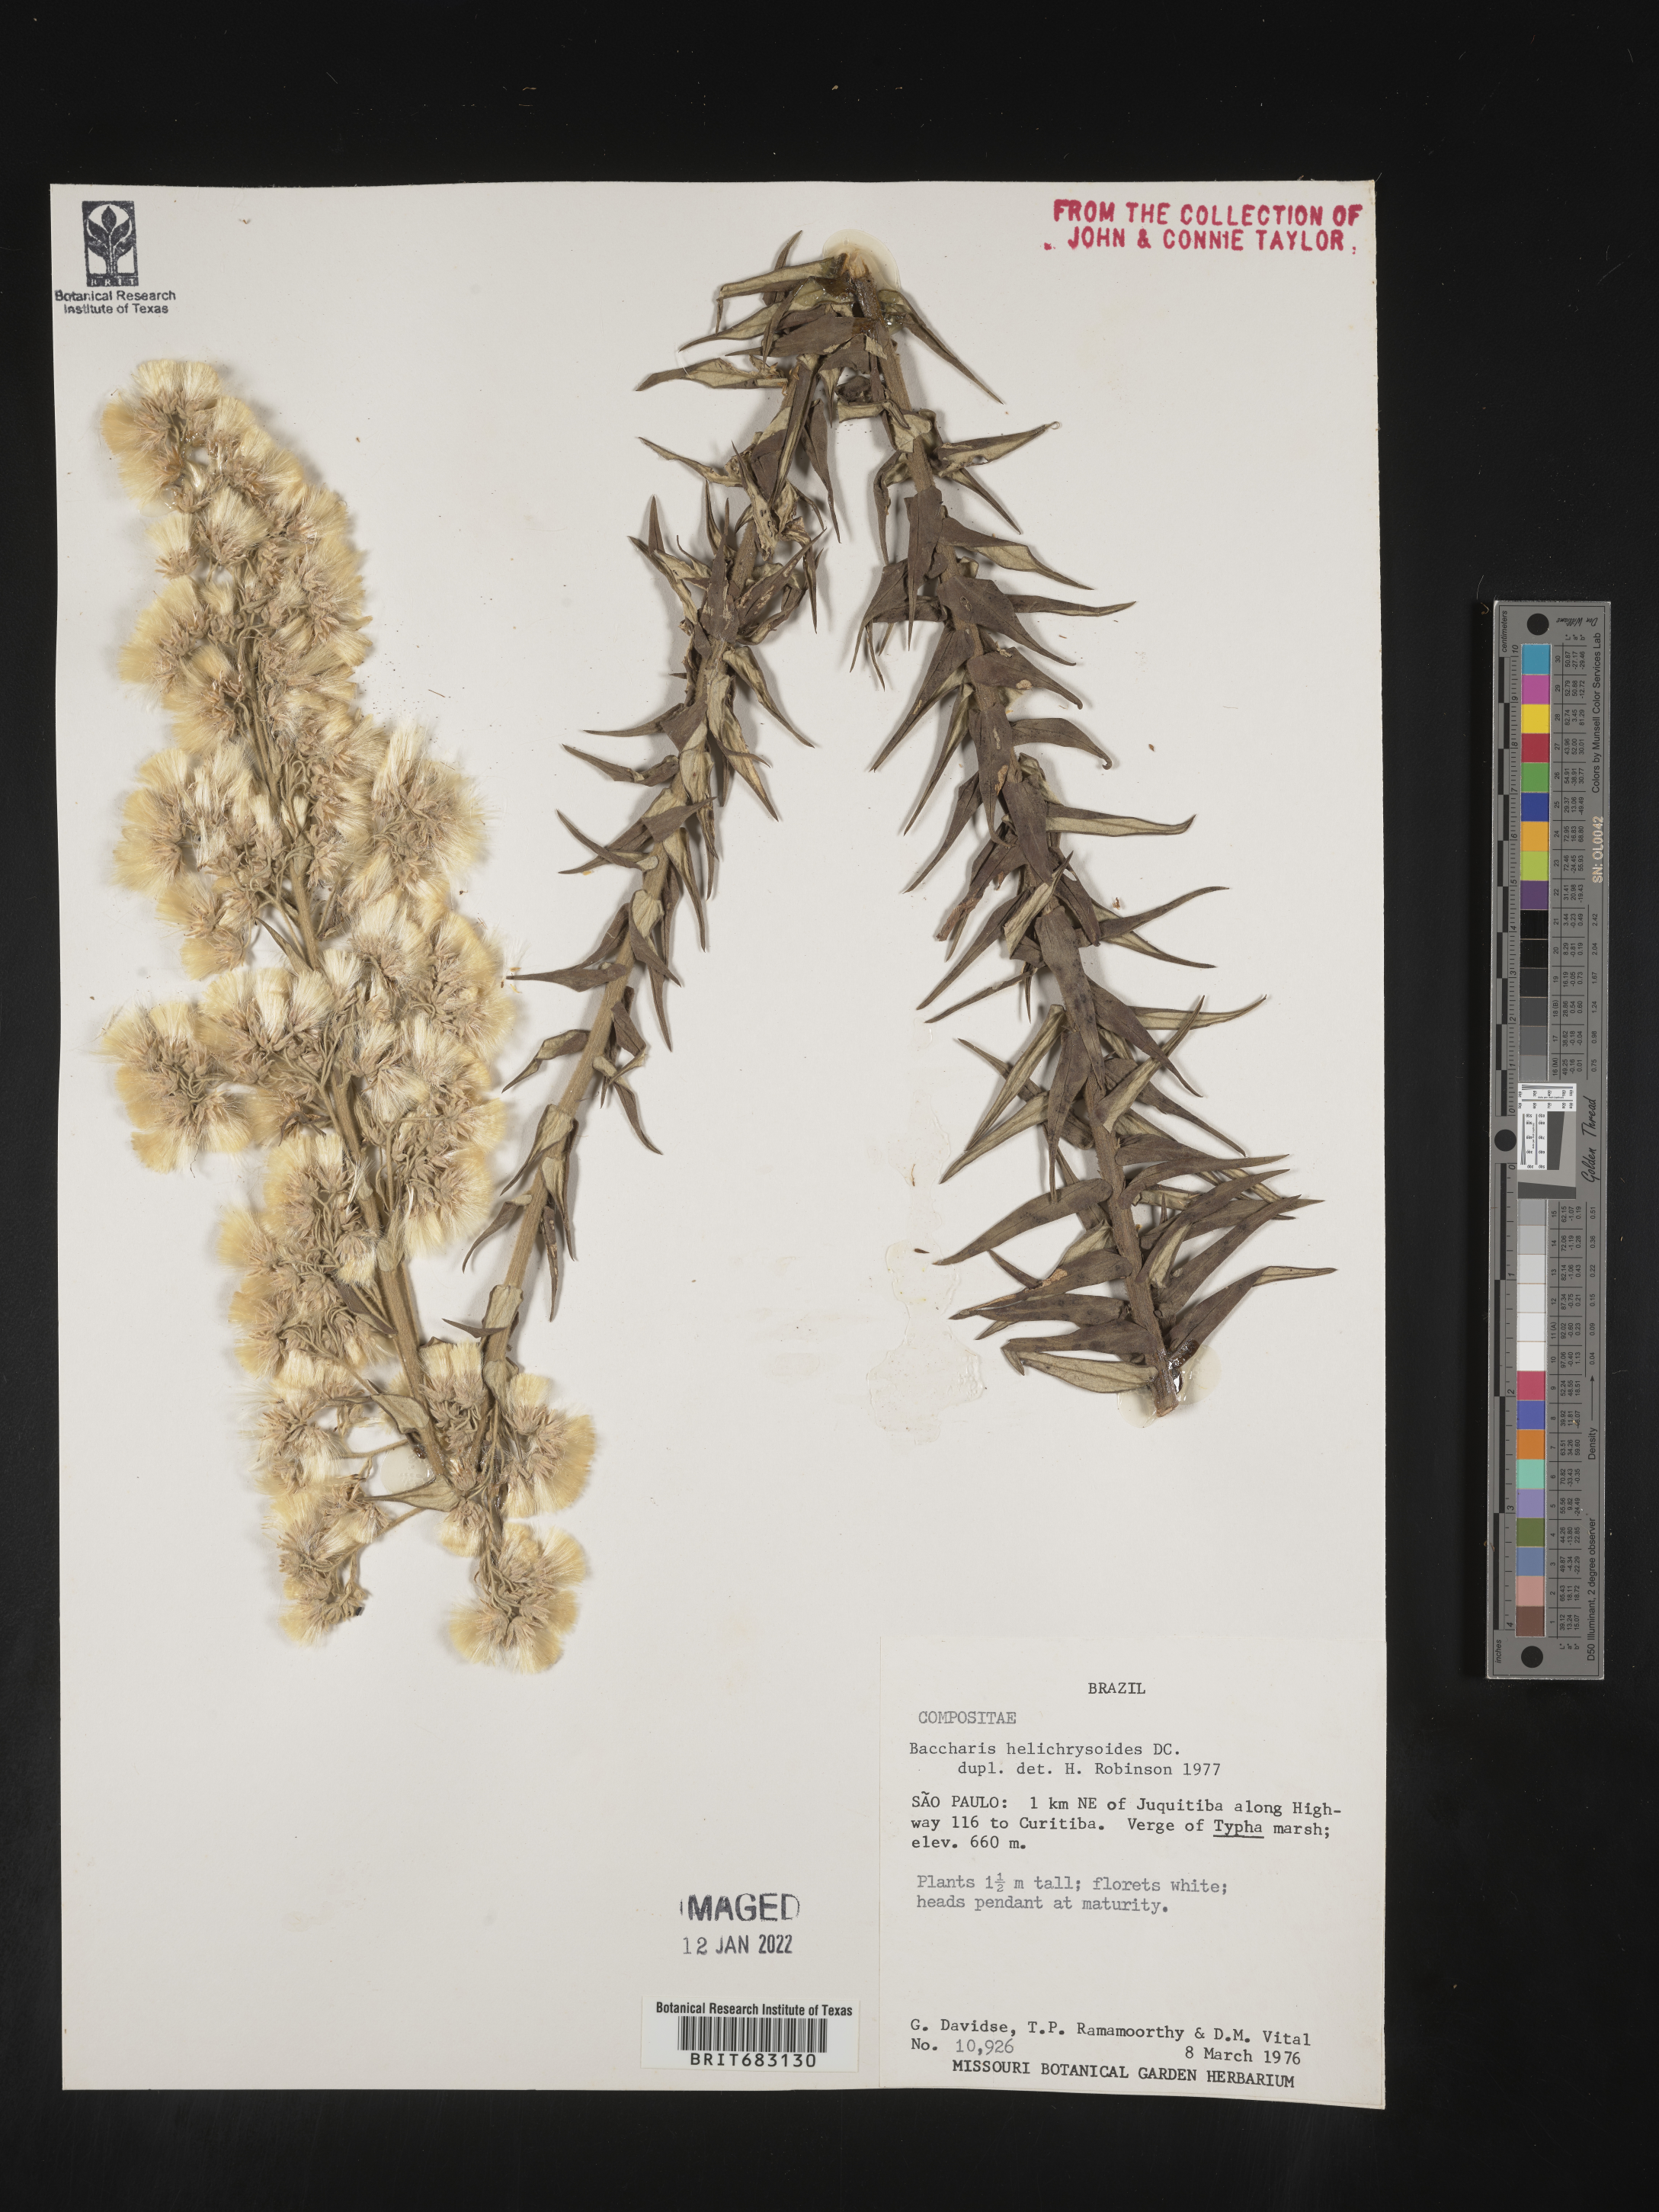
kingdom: Plantae
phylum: Tracheophyta
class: Magnoliopsida
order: Asterales
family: Asteraceae
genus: Baccharis
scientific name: Baccharis
